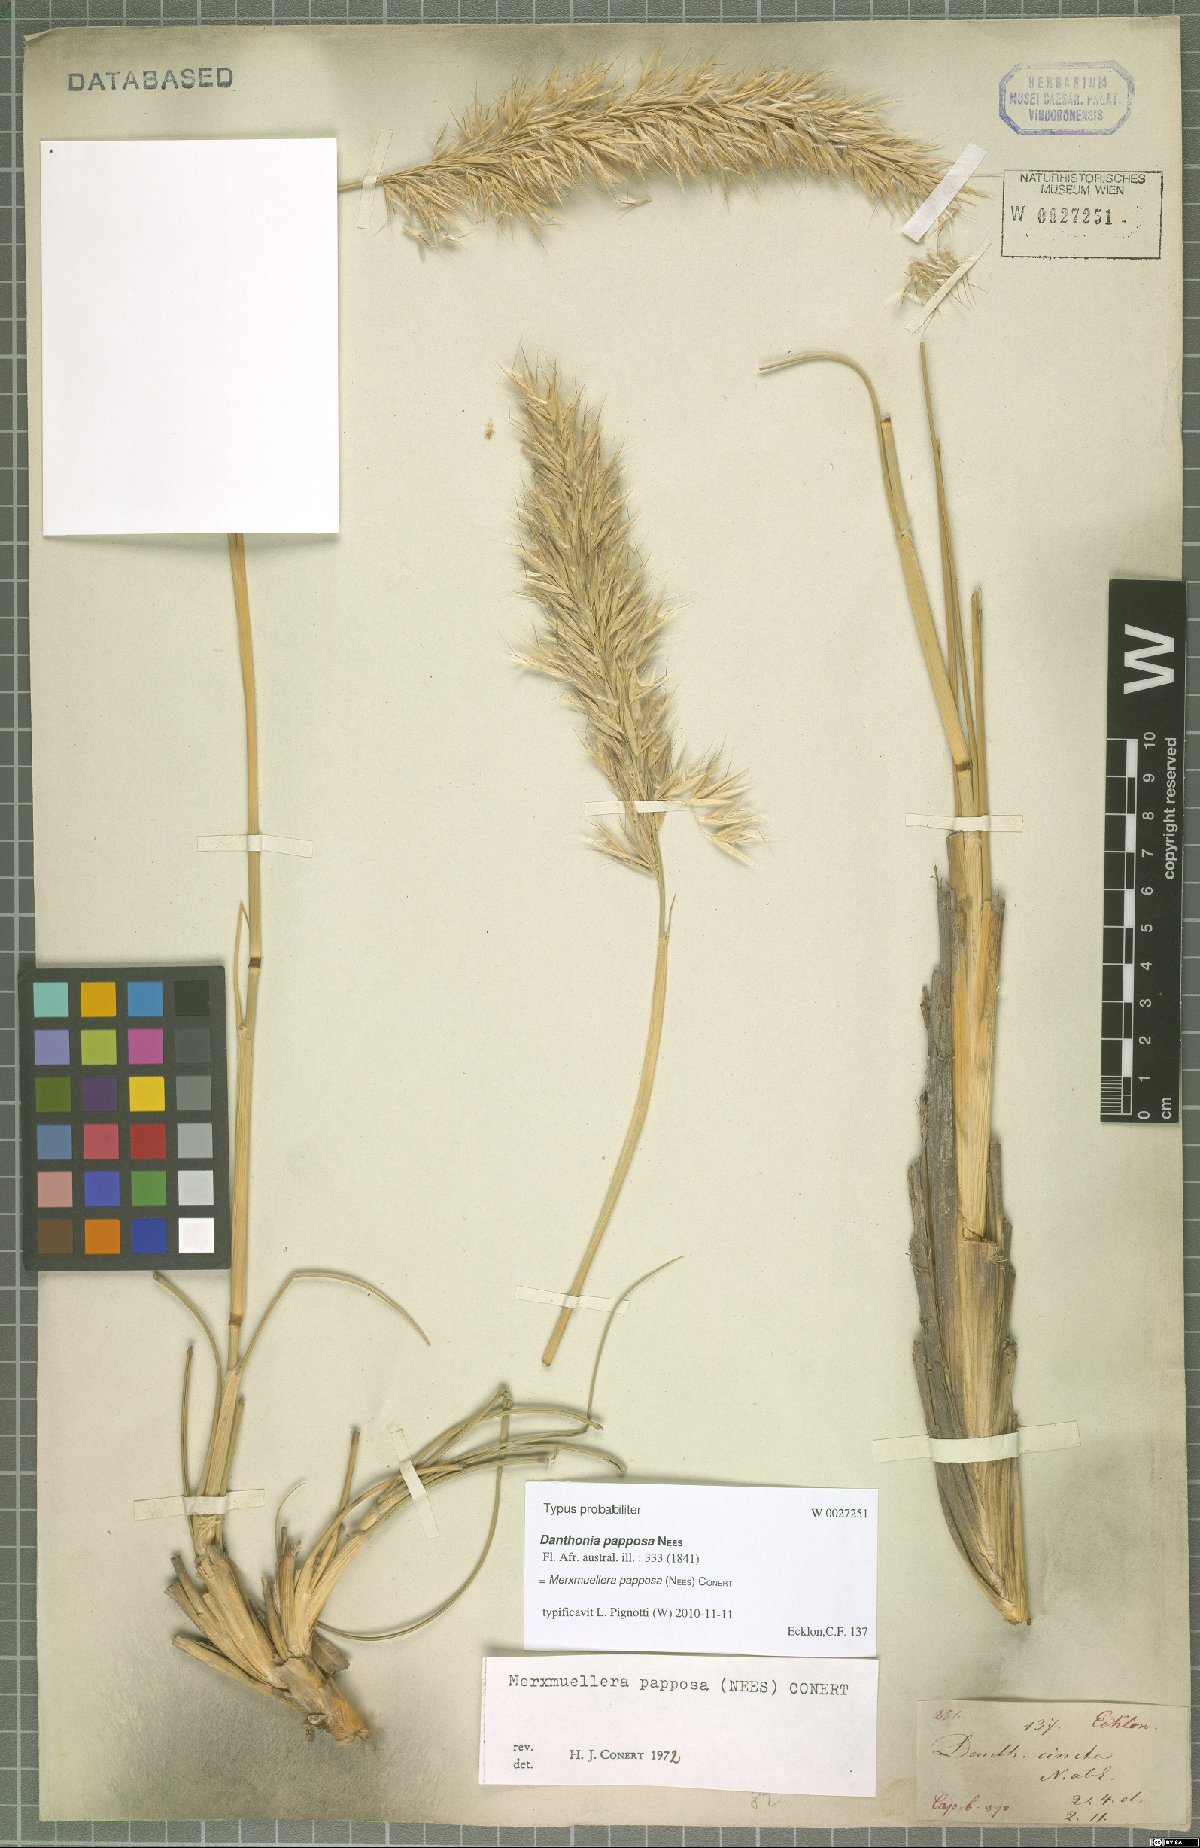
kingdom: Plantae
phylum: Tracheophyta
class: Liliopsida
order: Poales
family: Poaceae
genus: Ellisochloa
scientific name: Ellisochloa papposa
